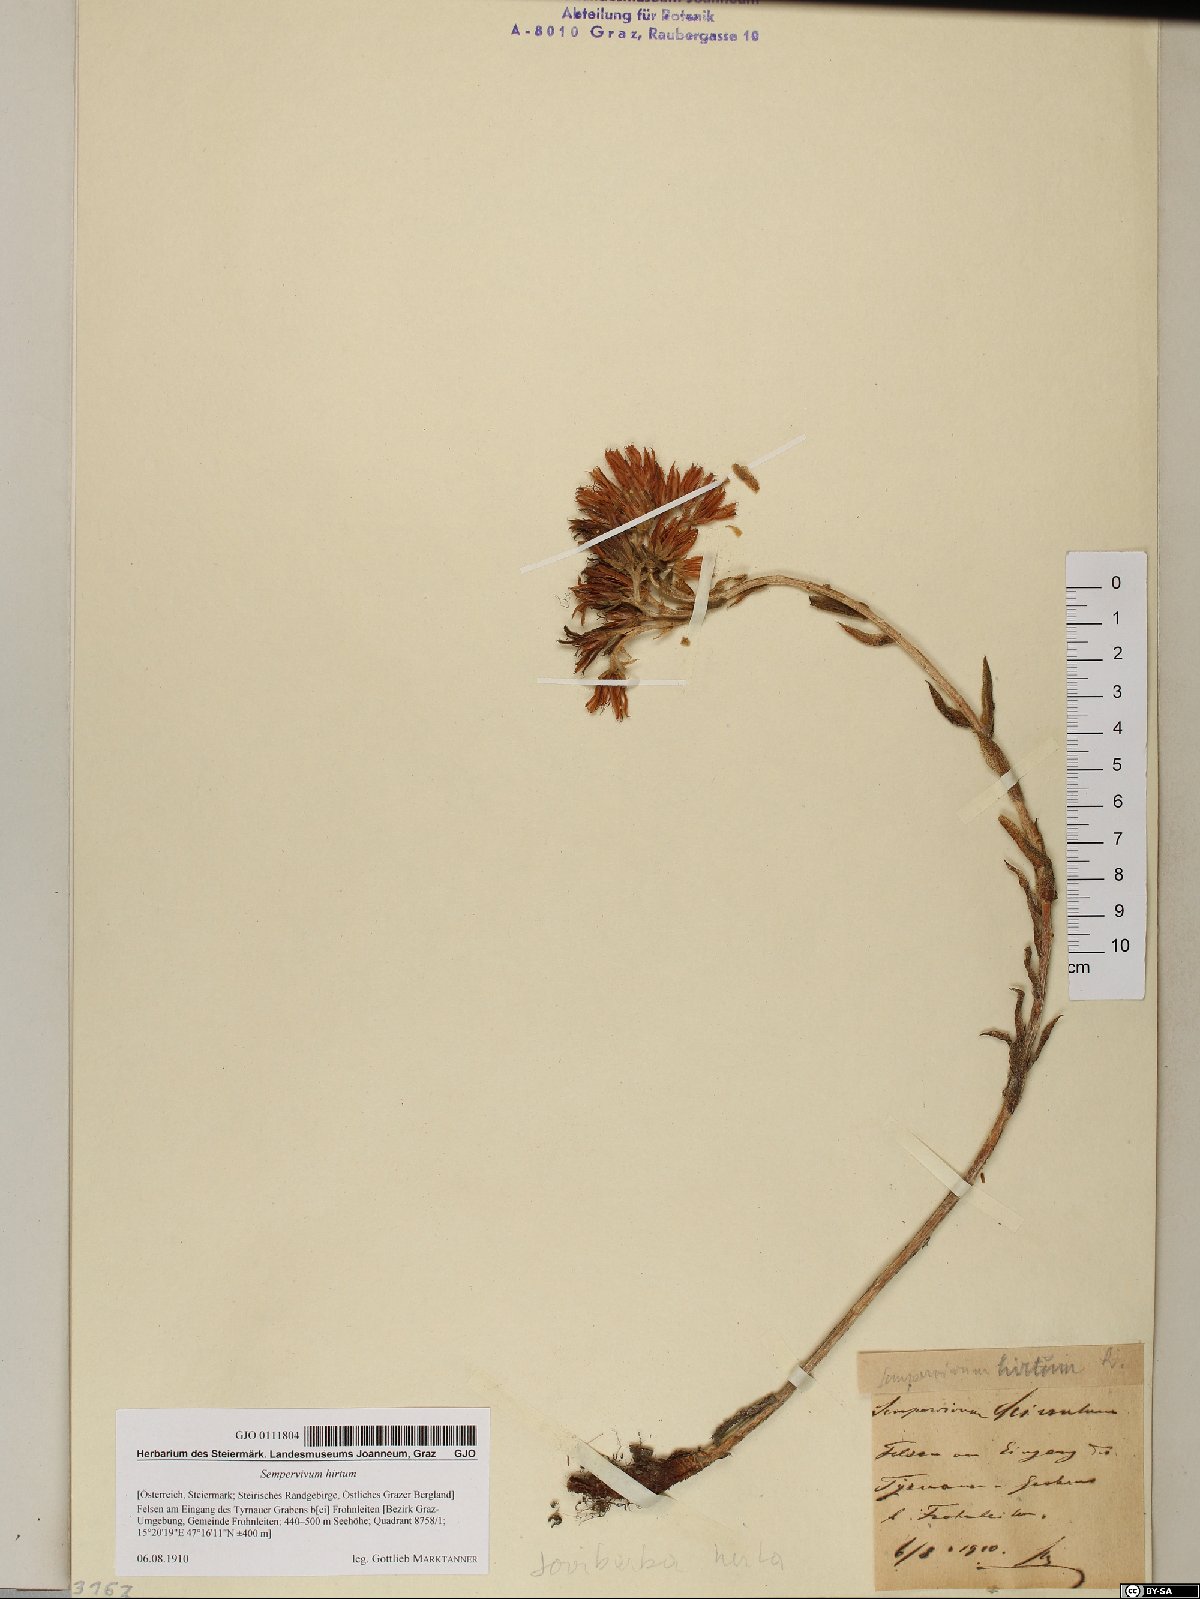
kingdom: Plantae
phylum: Tracheophyta
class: Magnoliopsida
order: Saxifragales
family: Crassulaceae
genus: Sempervivum
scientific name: Sempervivum globiferum
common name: Rolling hen-and-chicks
